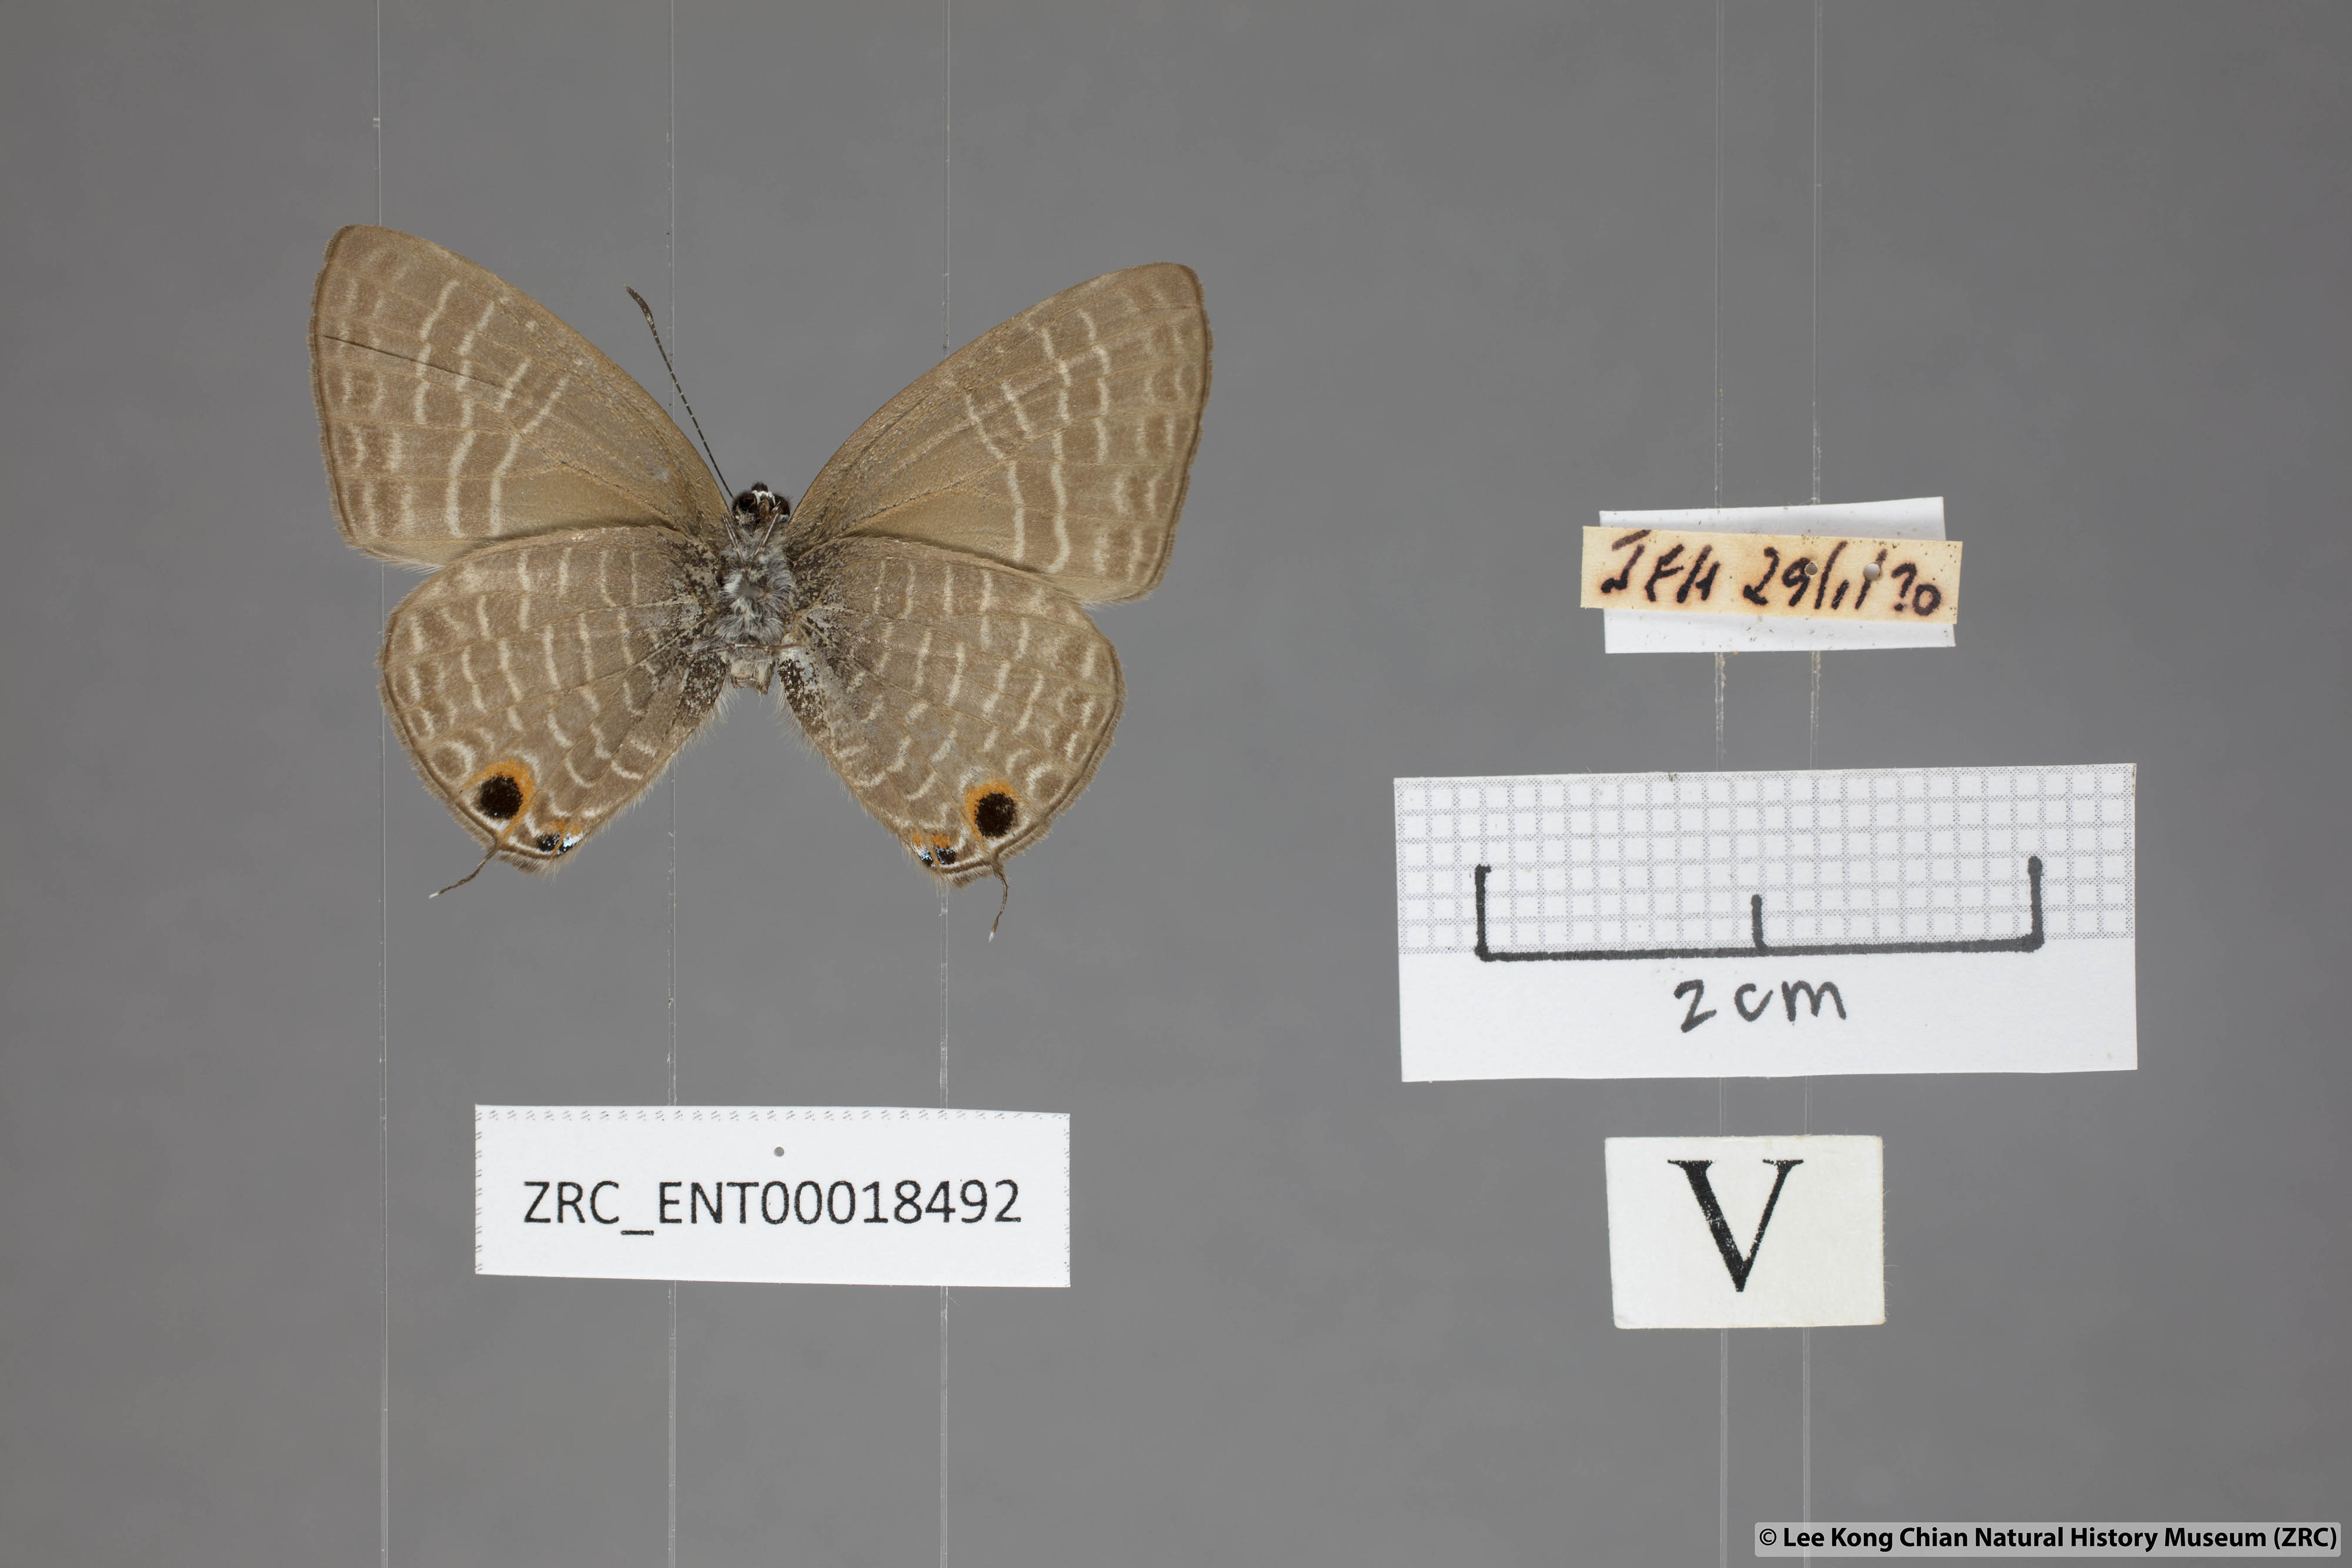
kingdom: Animalia
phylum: Arthropoda
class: Insecta
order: Lepidoptera
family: Lycaenidae
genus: Nacaduba
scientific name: Nacaduba subperusia
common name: Violet fourline blue
